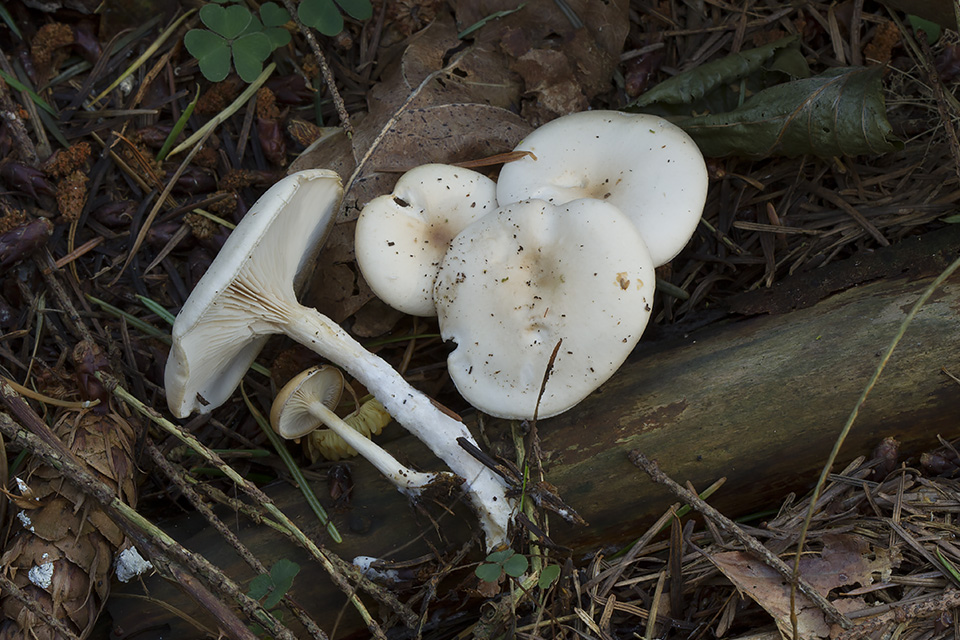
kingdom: Fungi
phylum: Basidiomycota
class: Agaricomycetes
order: Agaricales
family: Tricholomataceae
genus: Clitocybe
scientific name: Clitocybe
